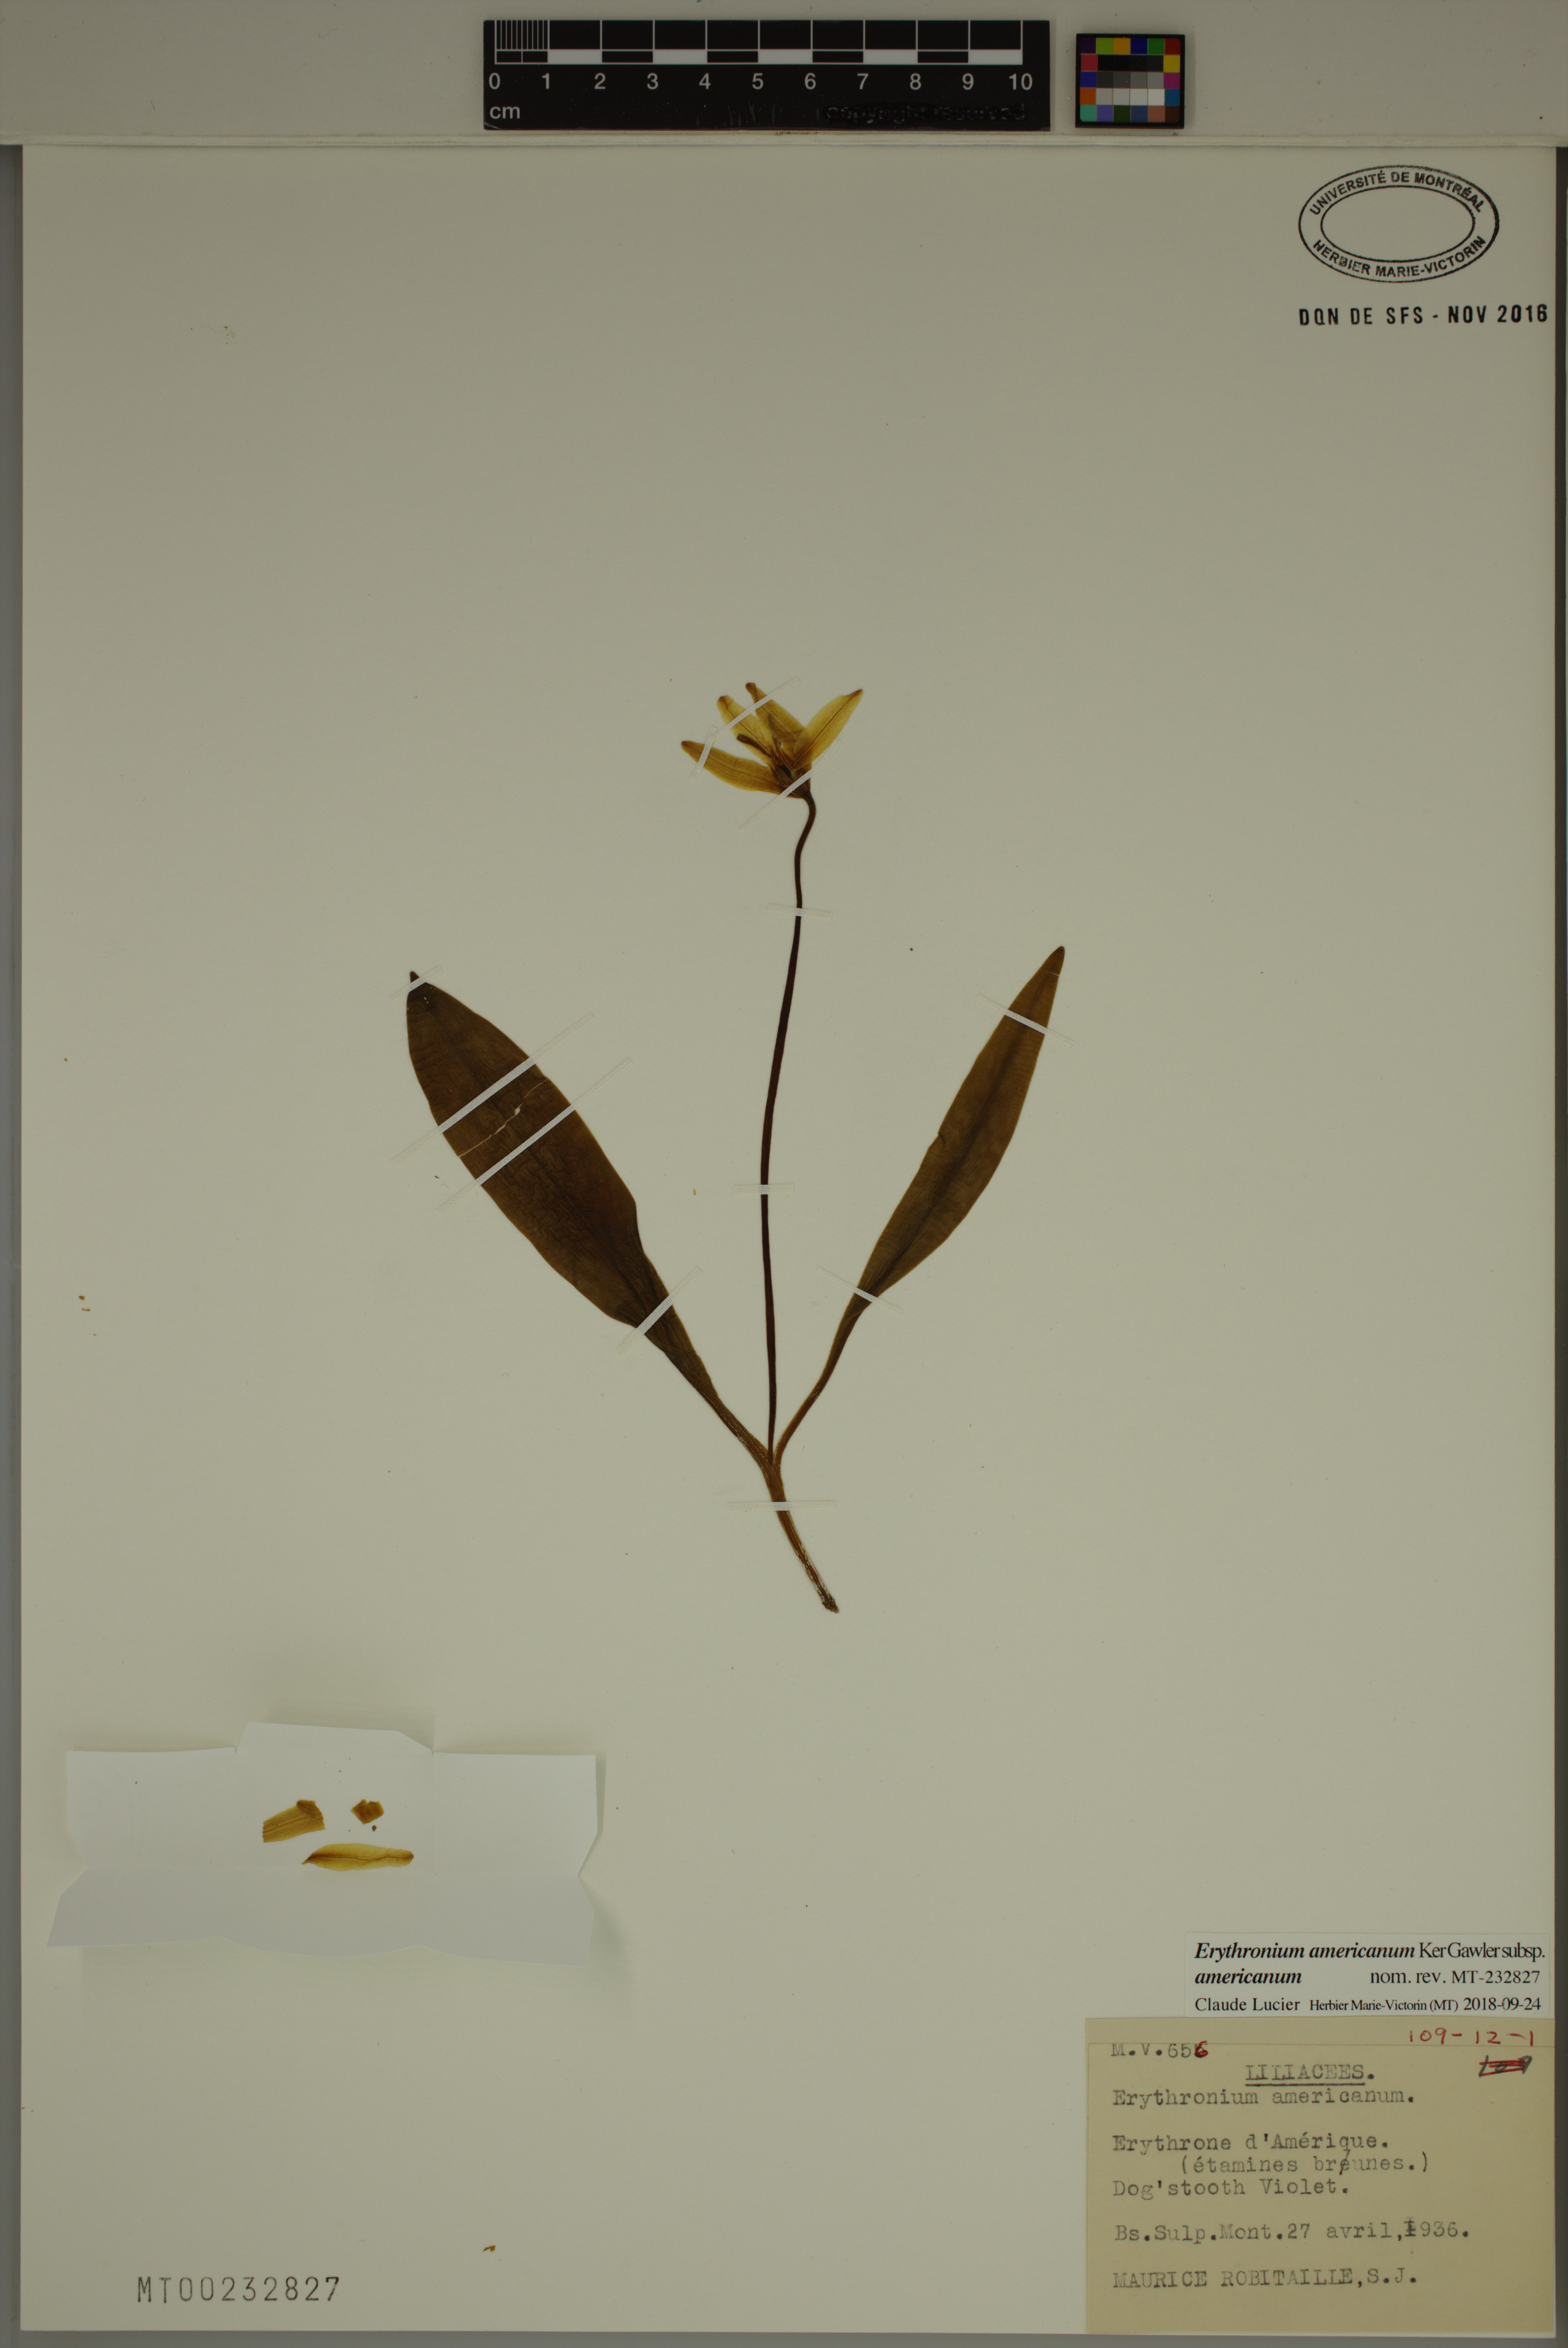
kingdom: Plantae
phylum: Tracheophyta
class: Liliopsida
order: Liliales
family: Liliaceae
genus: Erythronium
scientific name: Erythronium americanum
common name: Yellow adder's-tongue
